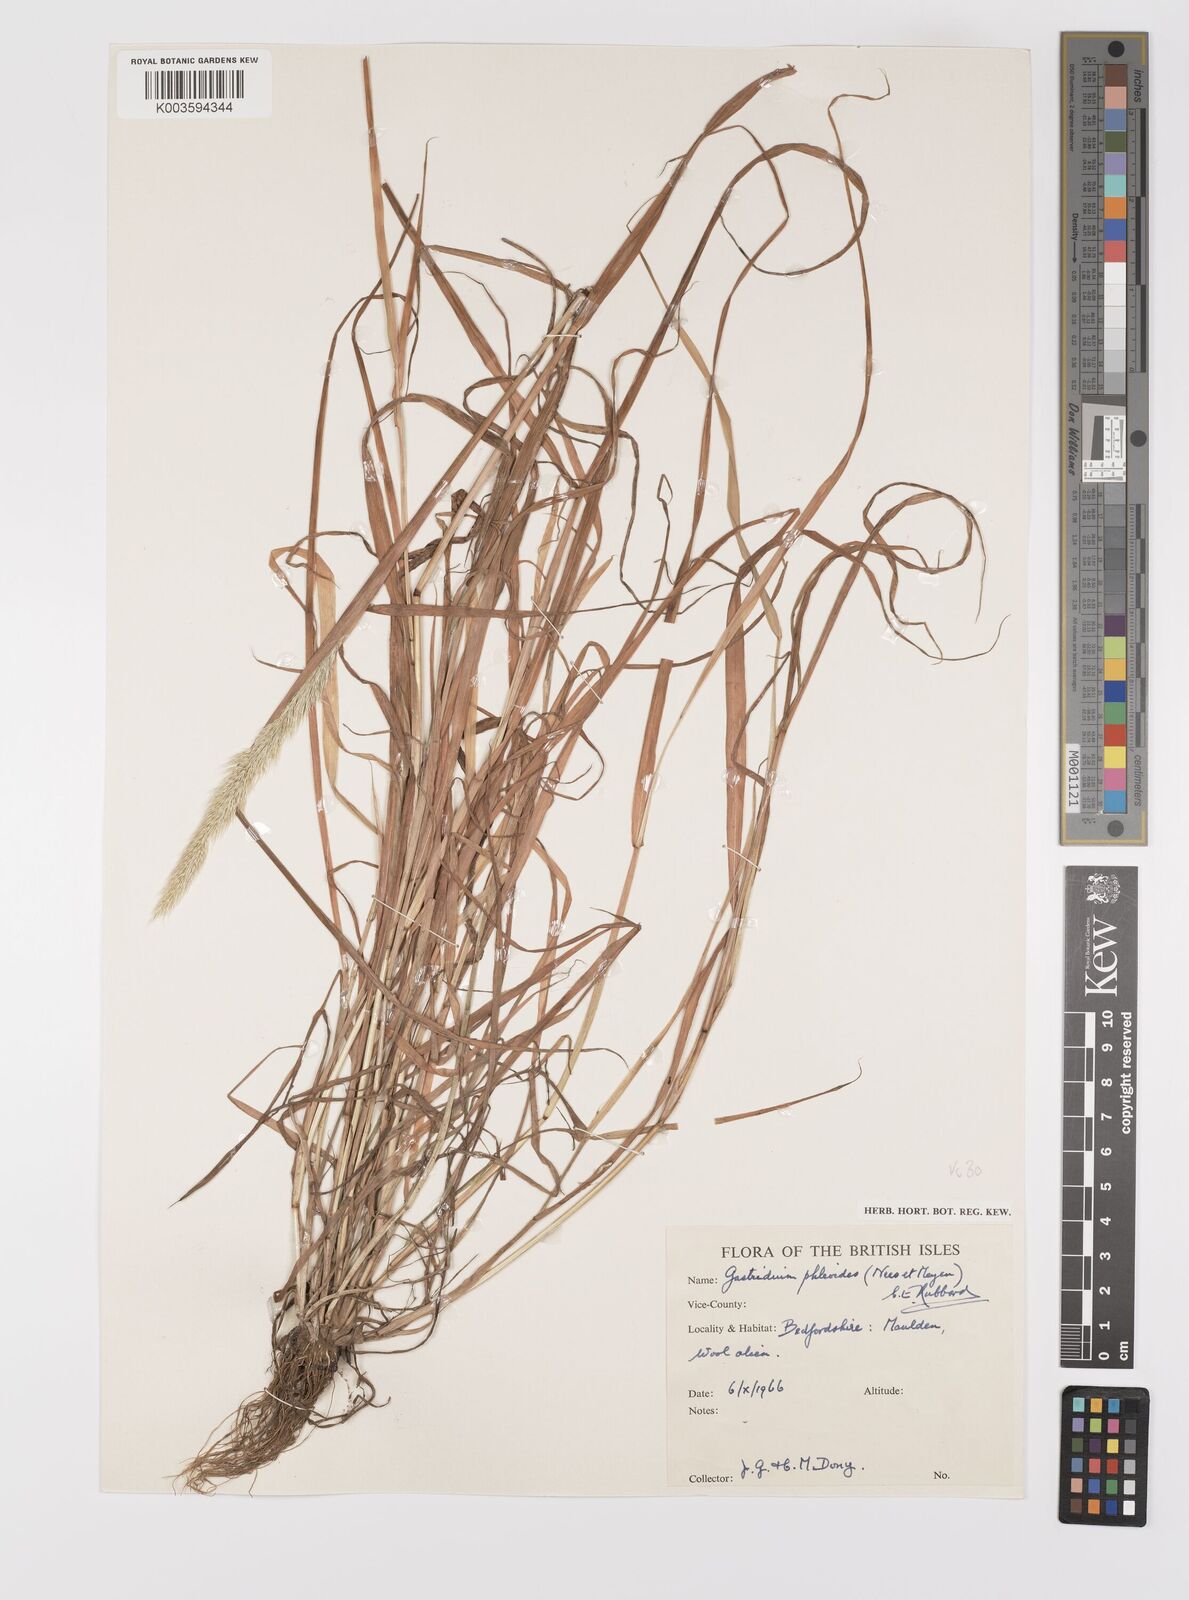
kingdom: Plantae
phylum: Tracheophyta
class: Liliopsida
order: Poales
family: Poaceae
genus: Gastridium
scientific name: Gastridium phleoides
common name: Nit grass
